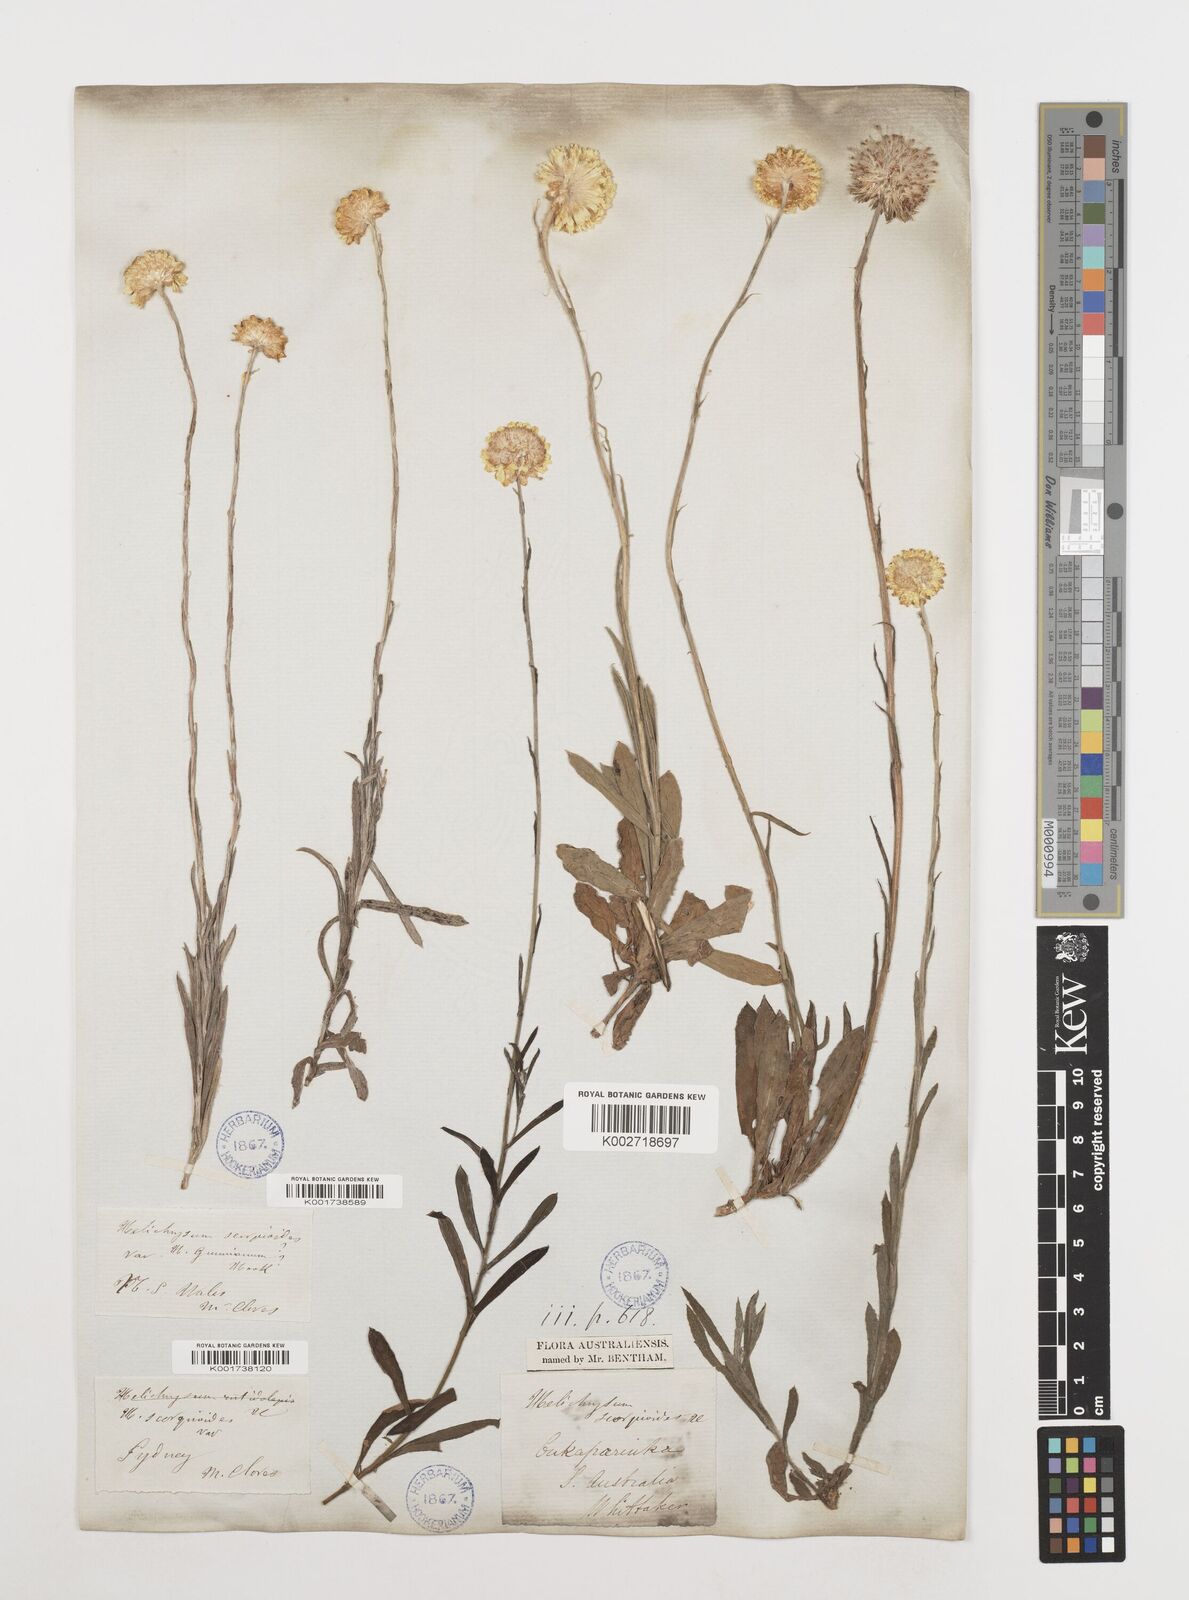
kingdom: Plantae
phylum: Tracheophyta
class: Magnoliopsida
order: Asterales
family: Asteraceae
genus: Coronidium
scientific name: Coronidium scorpioides
